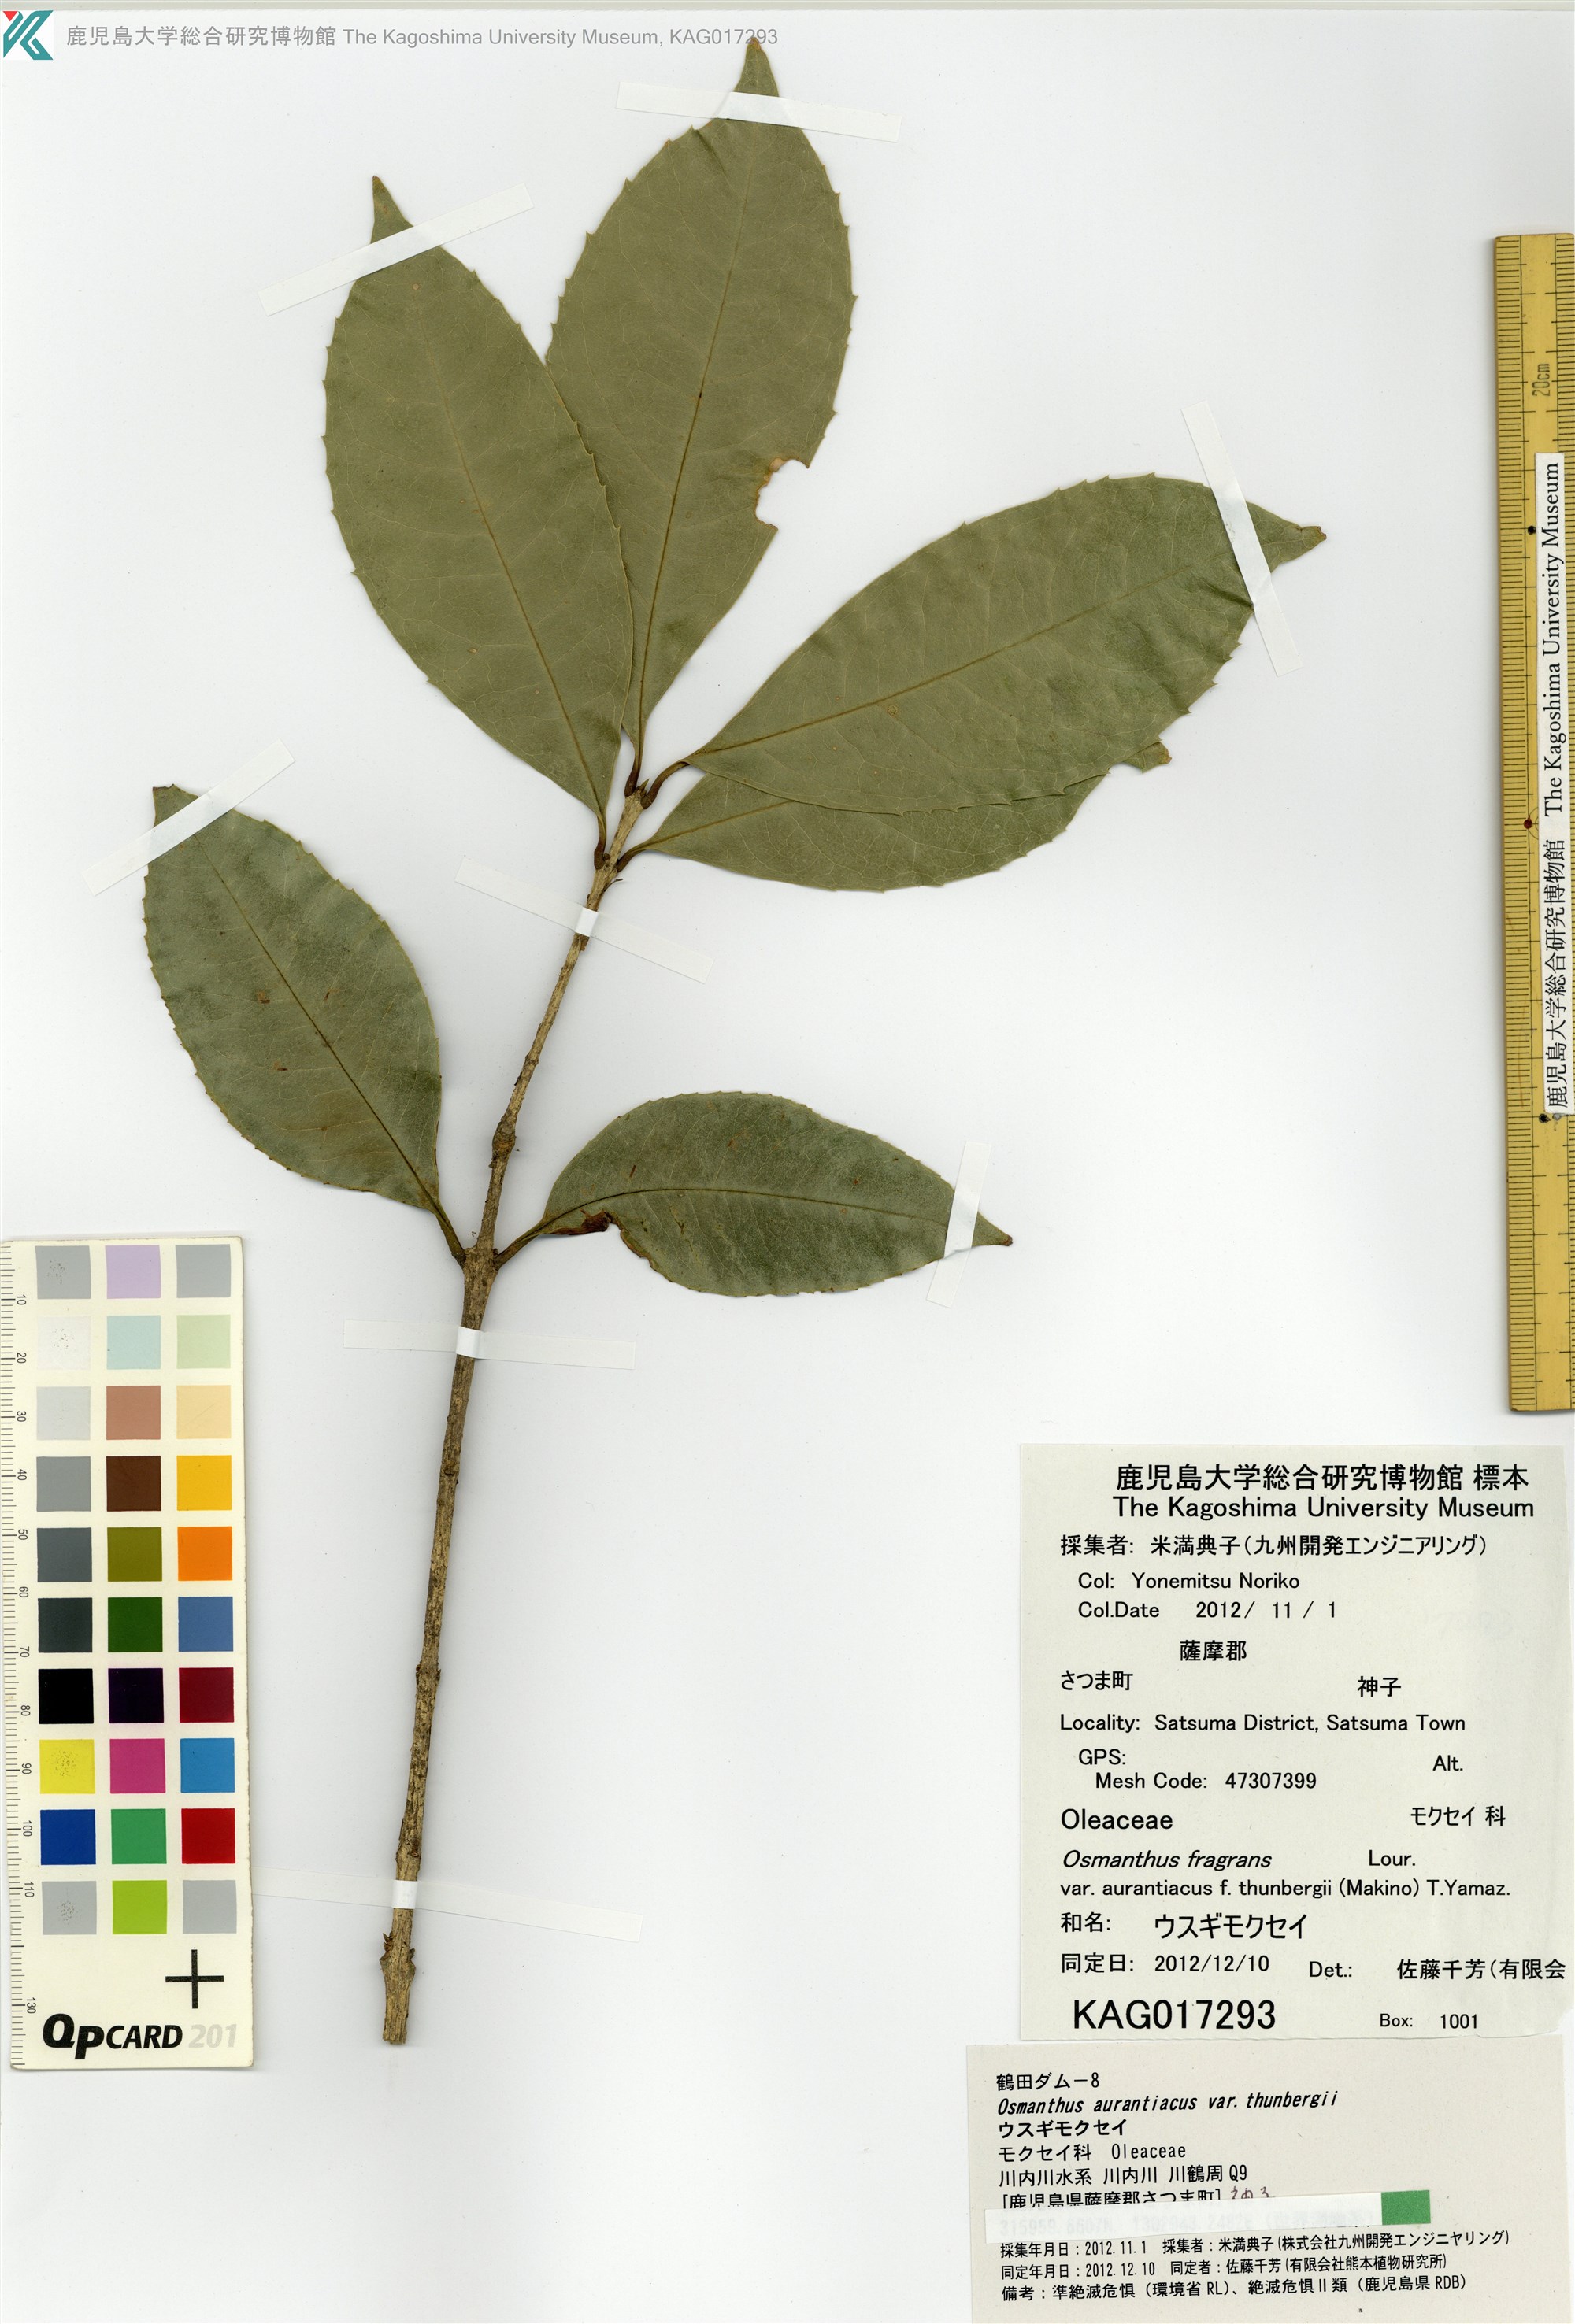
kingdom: Plantae
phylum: Tracheophyta
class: Magnoliopsida
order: Lamiales
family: Oleaceae
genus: Osmanthus
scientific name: Osmanthus fragrans
